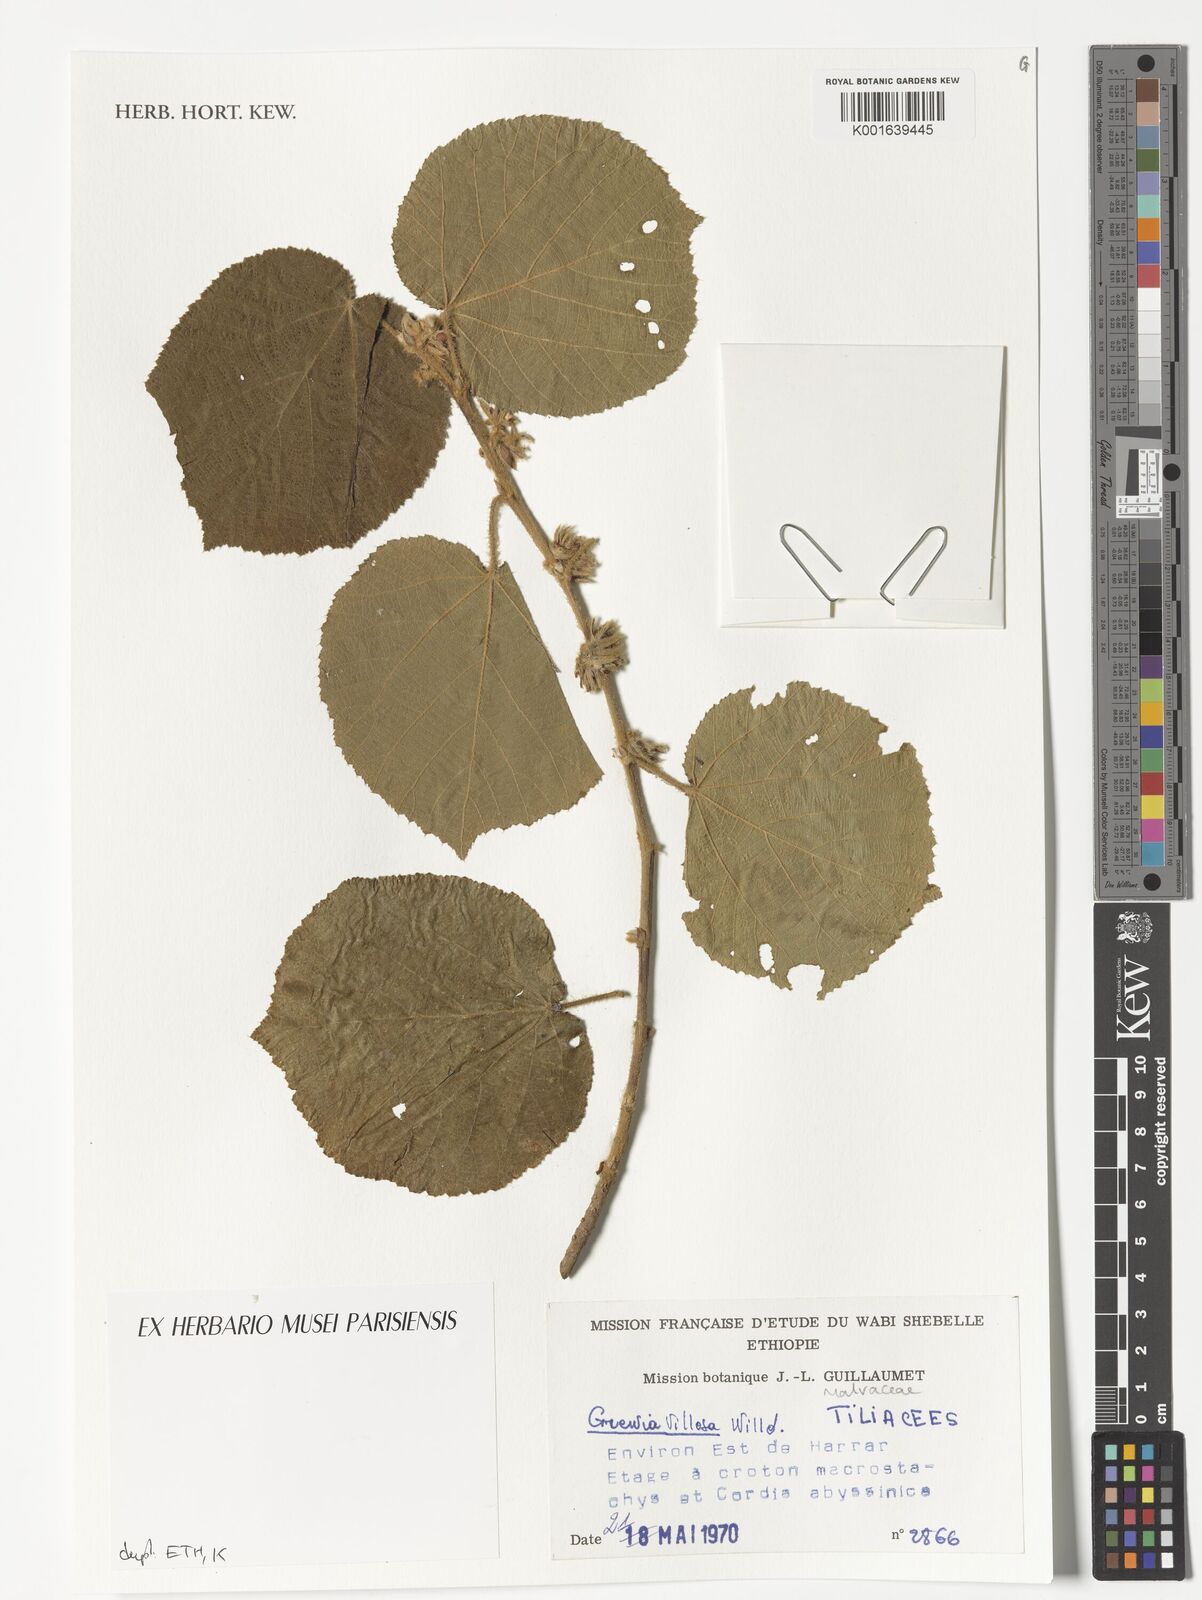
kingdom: Plantae
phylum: Tracheophyta
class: Magnoliopsida
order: Malvales
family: Malvaceae
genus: Grewia
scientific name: Grewia villosa
